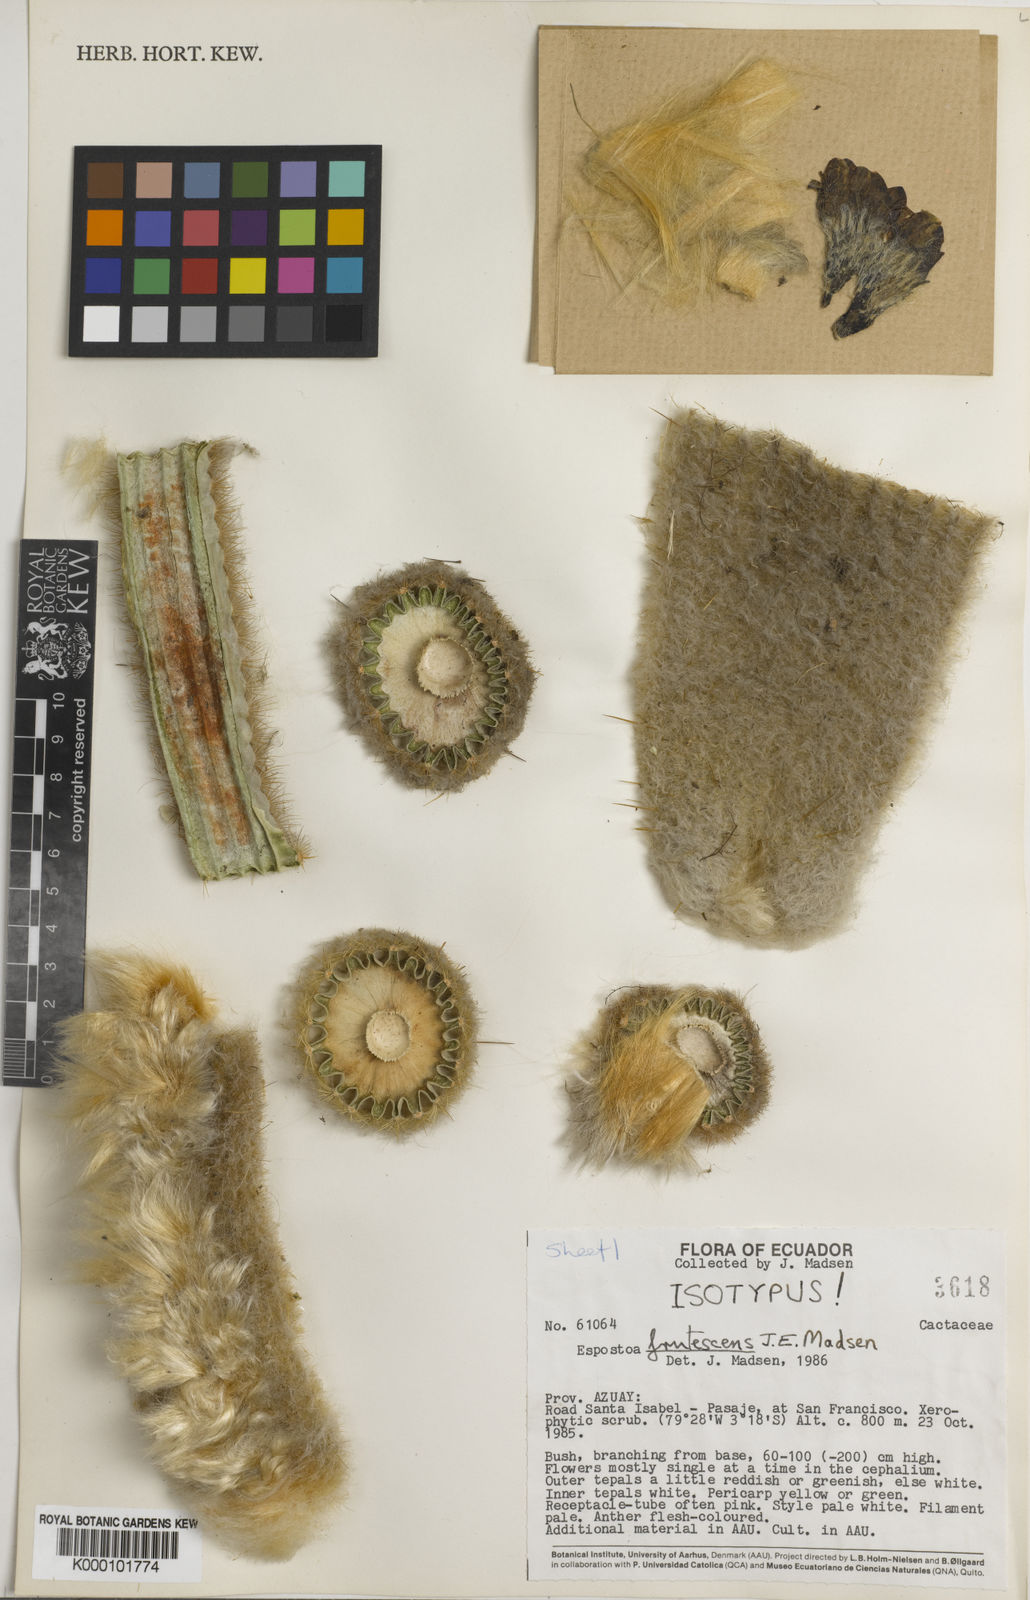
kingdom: Plantae
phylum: Tracheophyta
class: Magnoliopsida
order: Caryophyllales
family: Cactaceae
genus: Espostoa
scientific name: Espostoa frutescens
